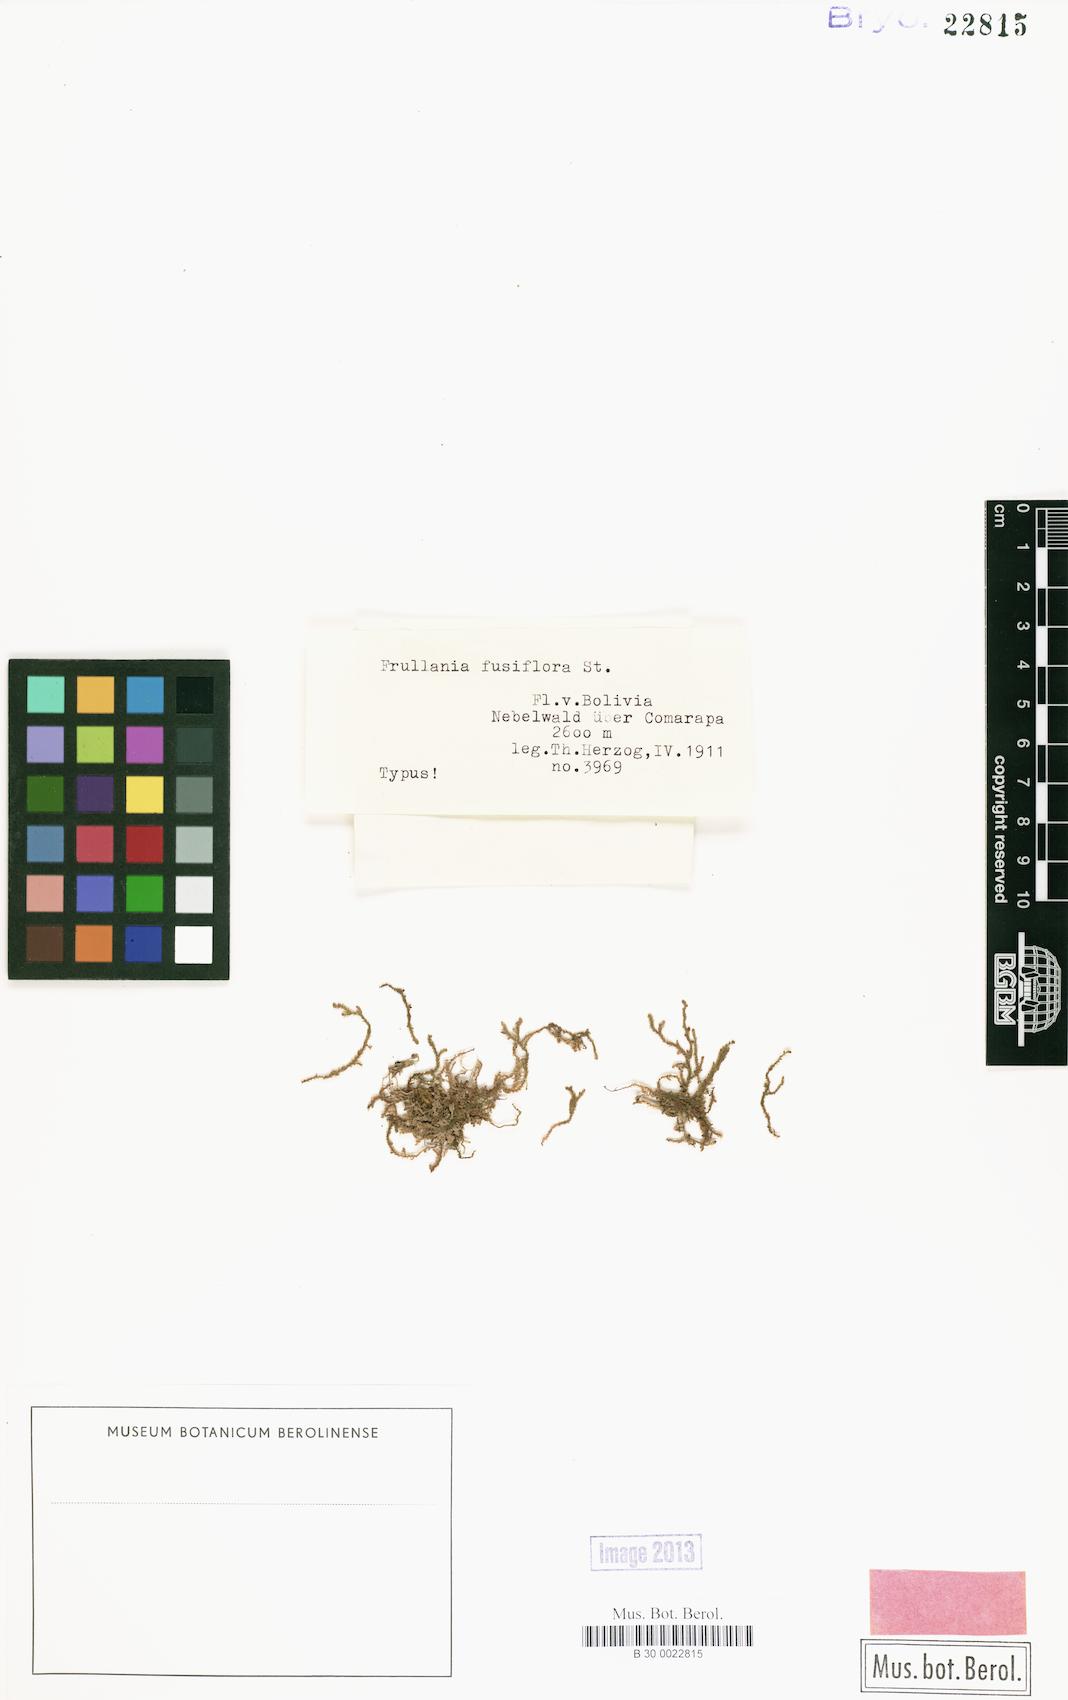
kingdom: Plantae
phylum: Marchantiophyta
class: Jungermanniopsida
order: Porellales
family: Frullaniaceae
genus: Frullania
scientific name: Frullania obscura
